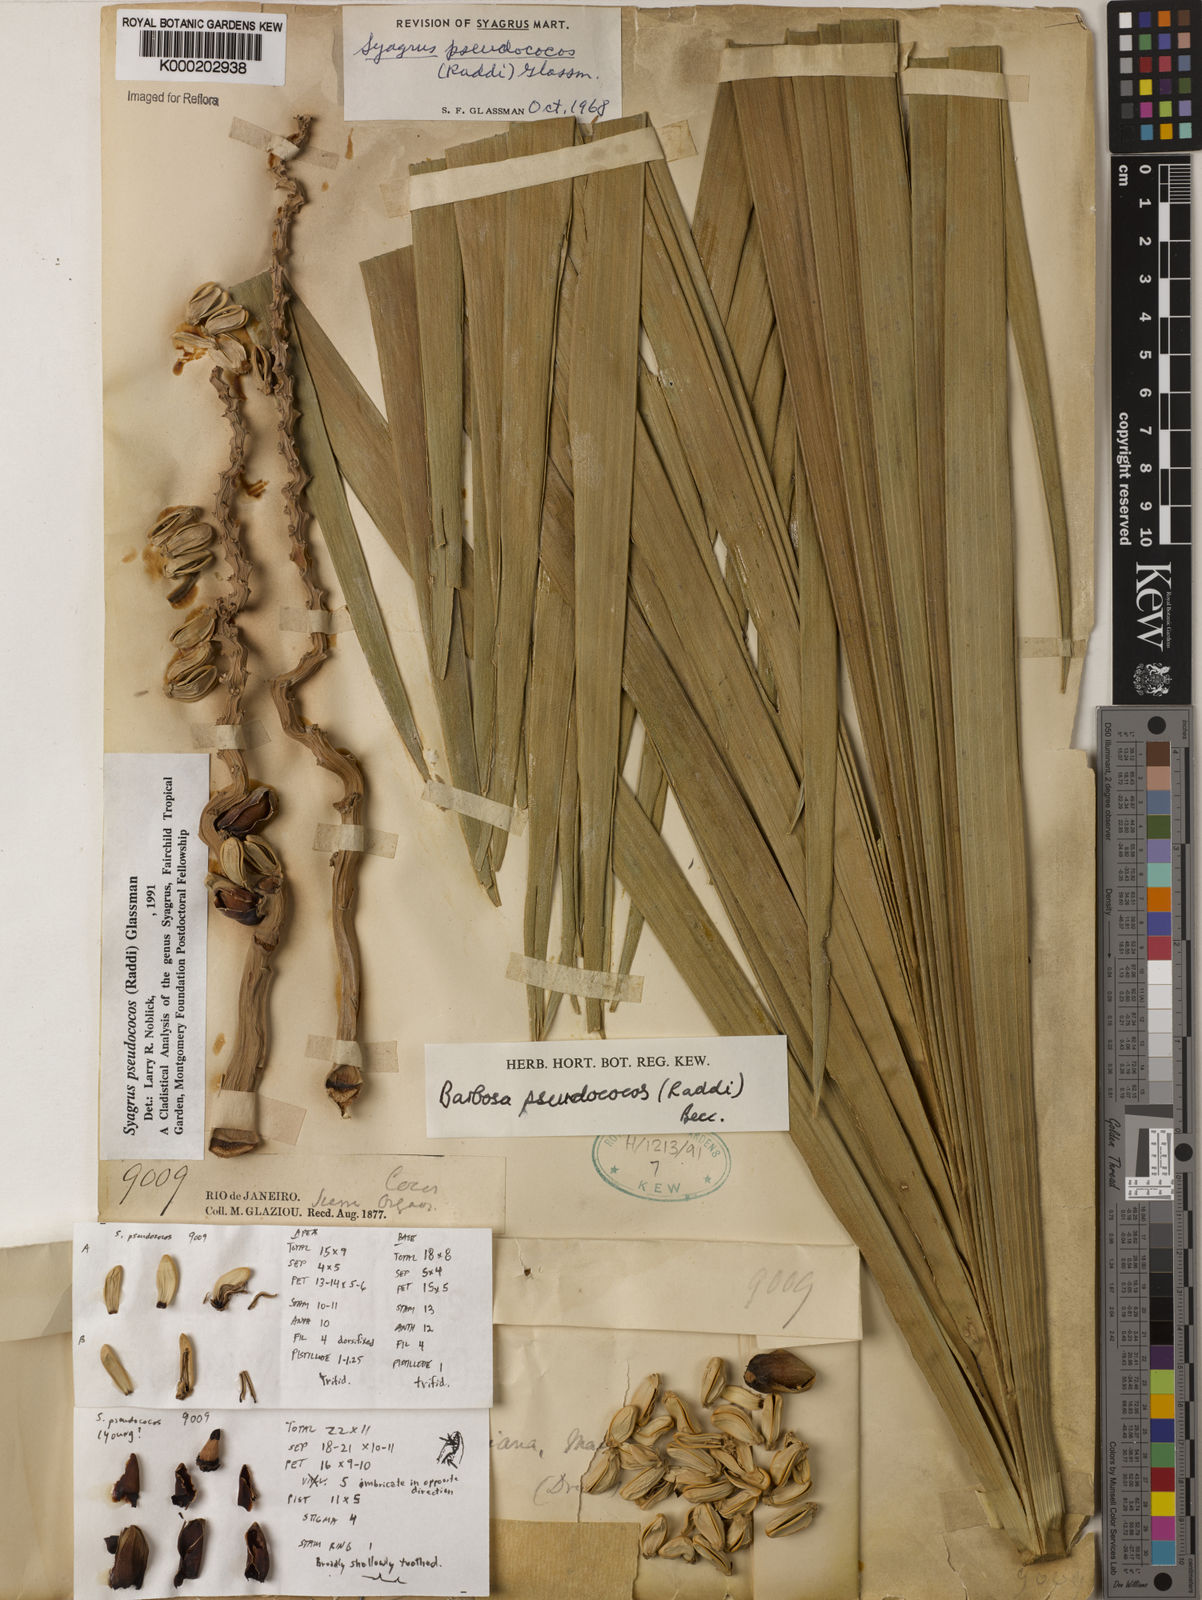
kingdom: Plantae
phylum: Tracheophyta
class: Liliopsida
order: Arecales
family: Arecaceae
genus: Syagrus
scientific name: Syagrus pseudococos
